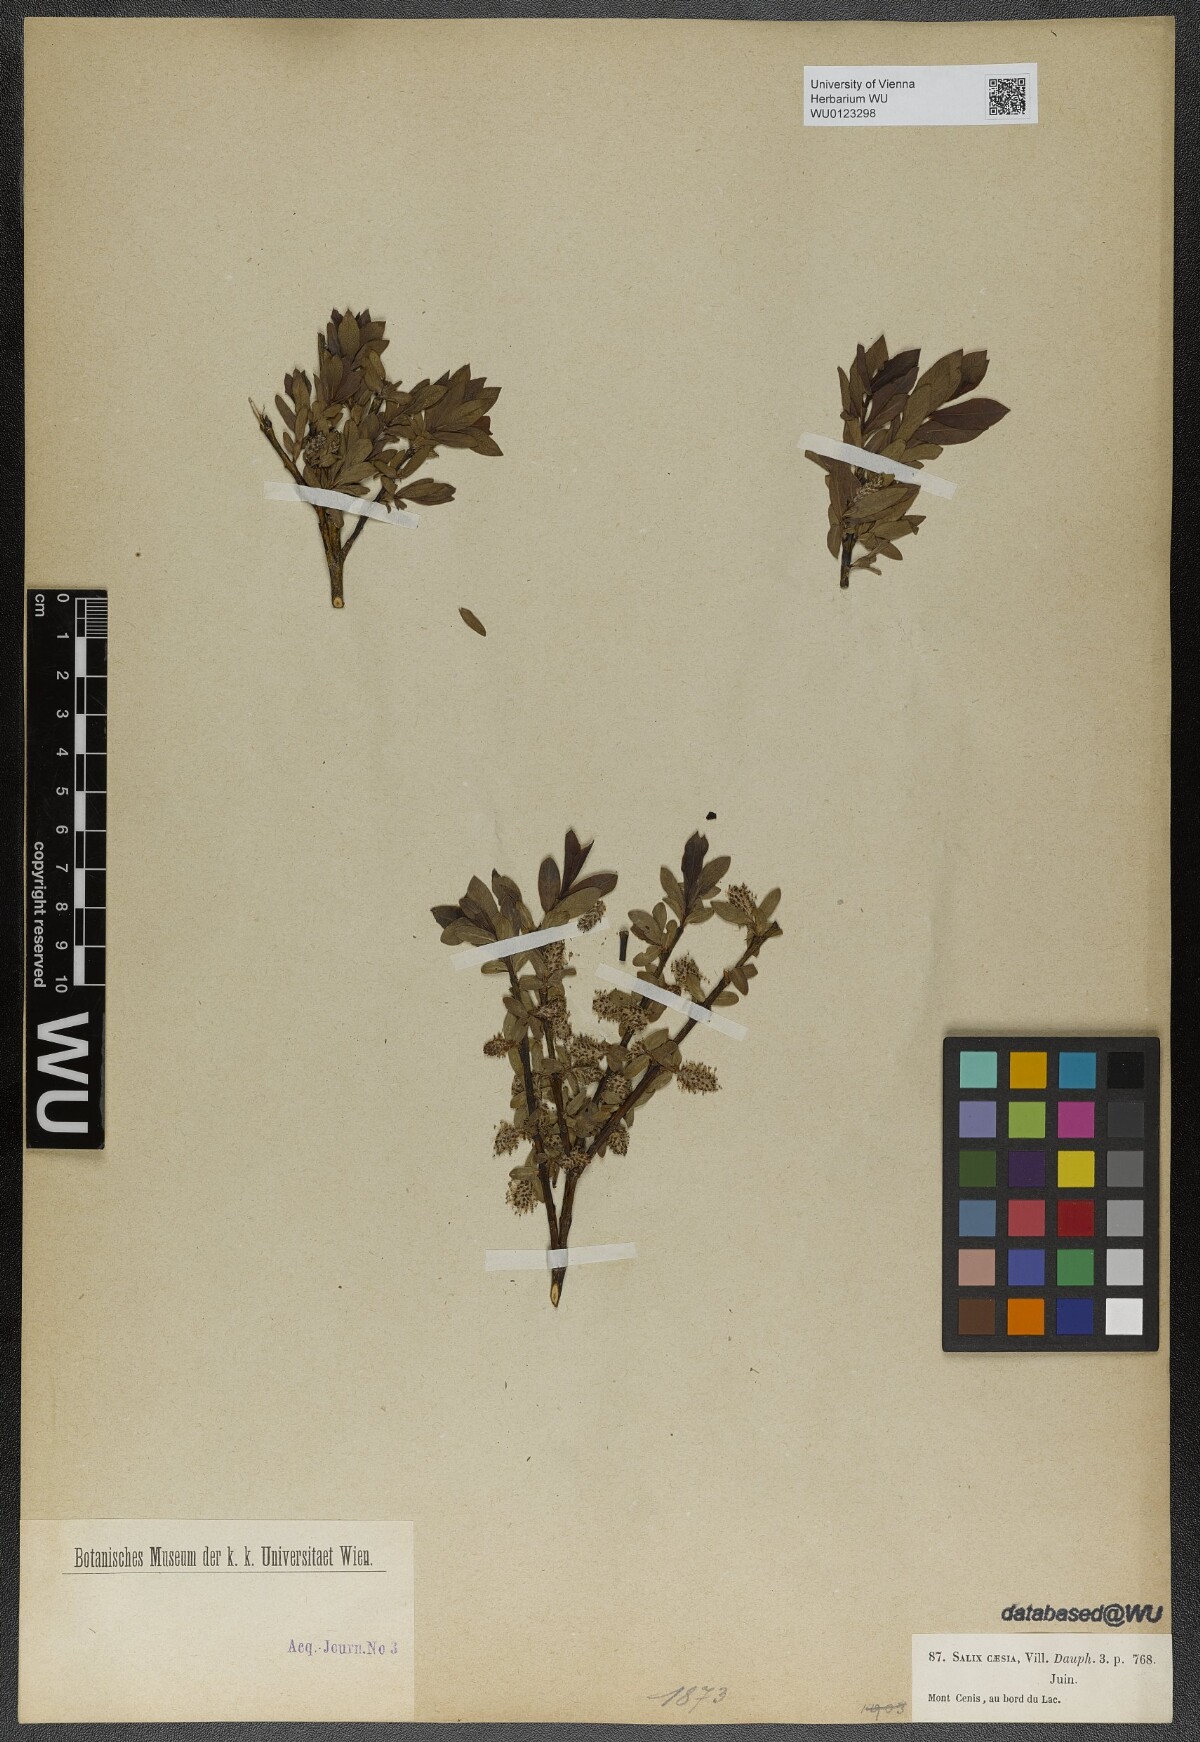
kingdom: Plantae
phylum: Tracheophyta
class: Magnoliopsida
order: Malpighiales
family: Salicaceae
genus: Salix
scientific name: Salix caesia
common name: Blue willow
